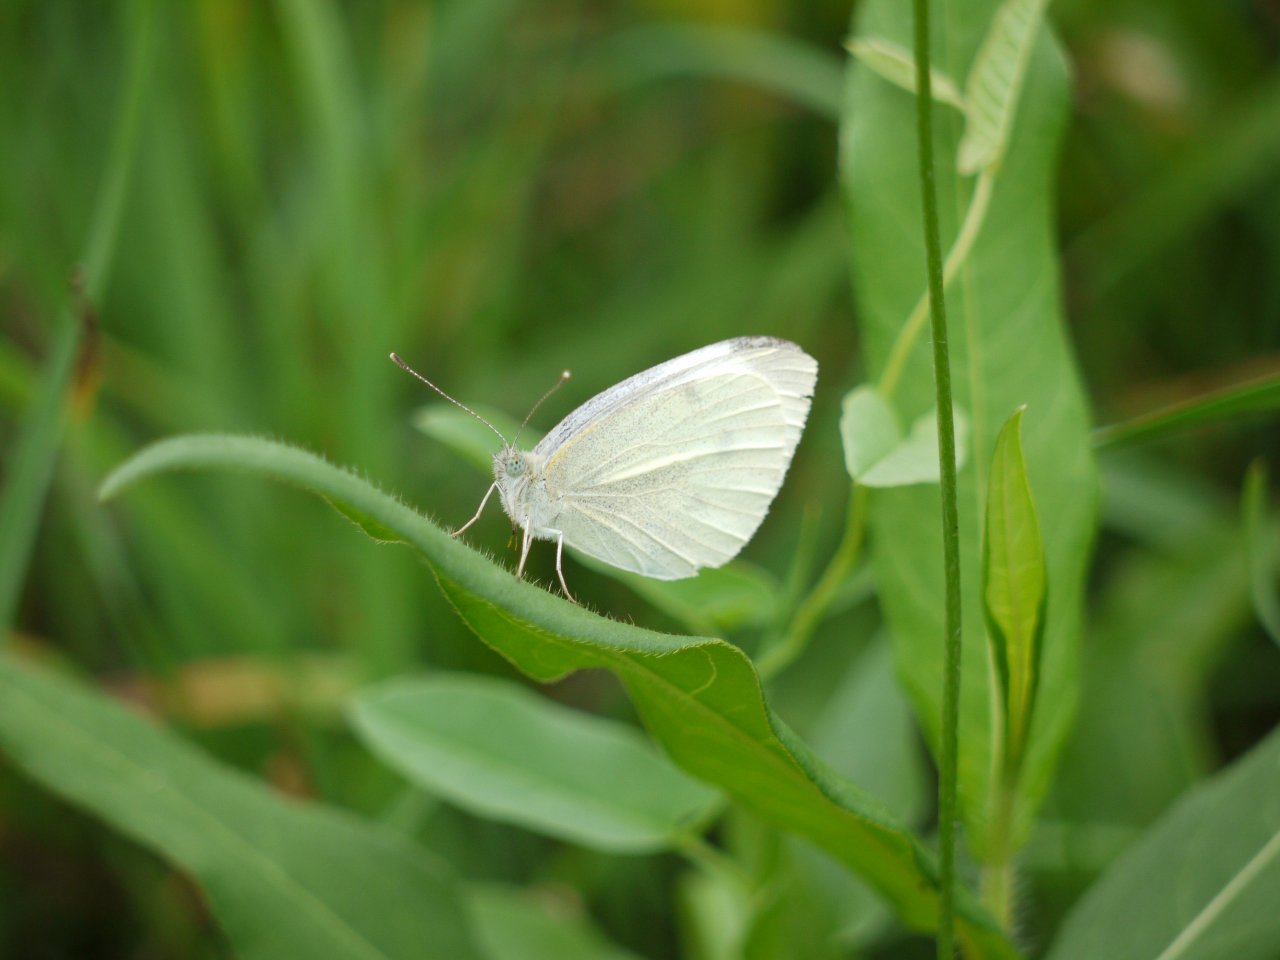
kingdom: Animalia
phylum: Arthropoda
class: Insecta
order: Lepidoptera
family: Pieridae
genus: Pieris
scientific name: Pieris rapae
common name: Cabbage White
